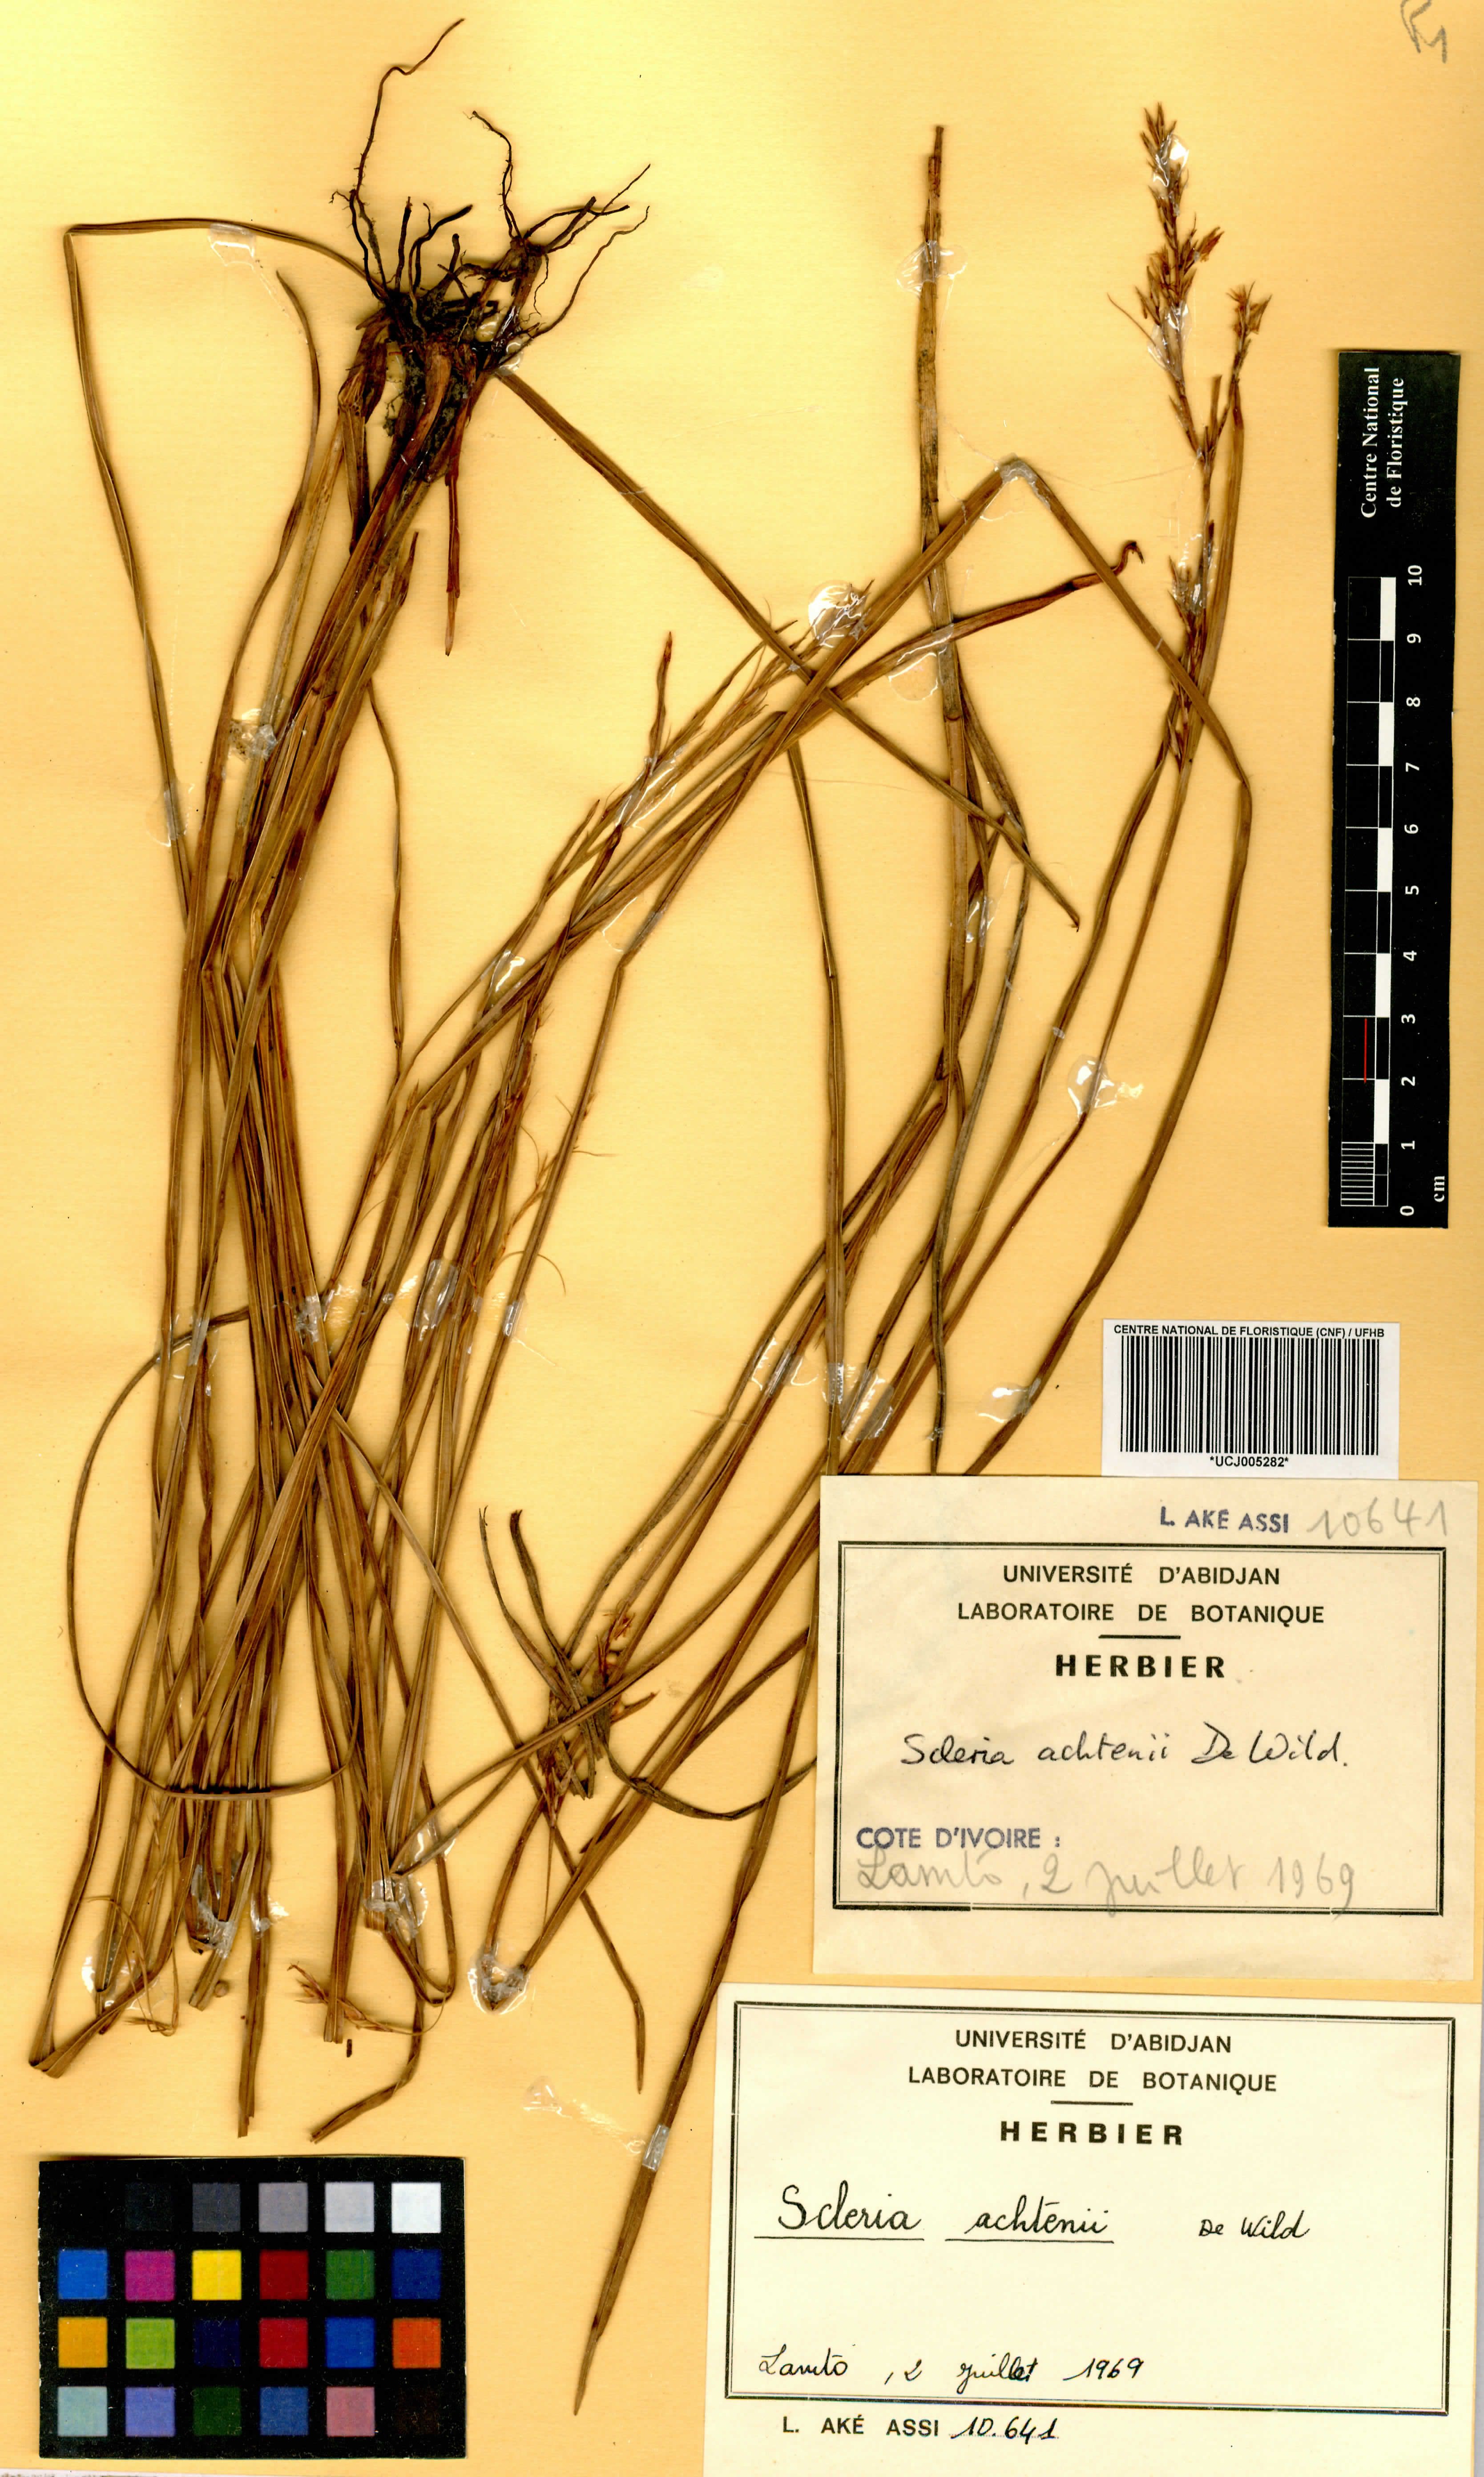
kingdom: Plantae
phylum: Tracheophyta
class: Liliopsida
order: Poales
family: Cyperaceae
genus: Scleria
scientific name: Scleria achtenii
